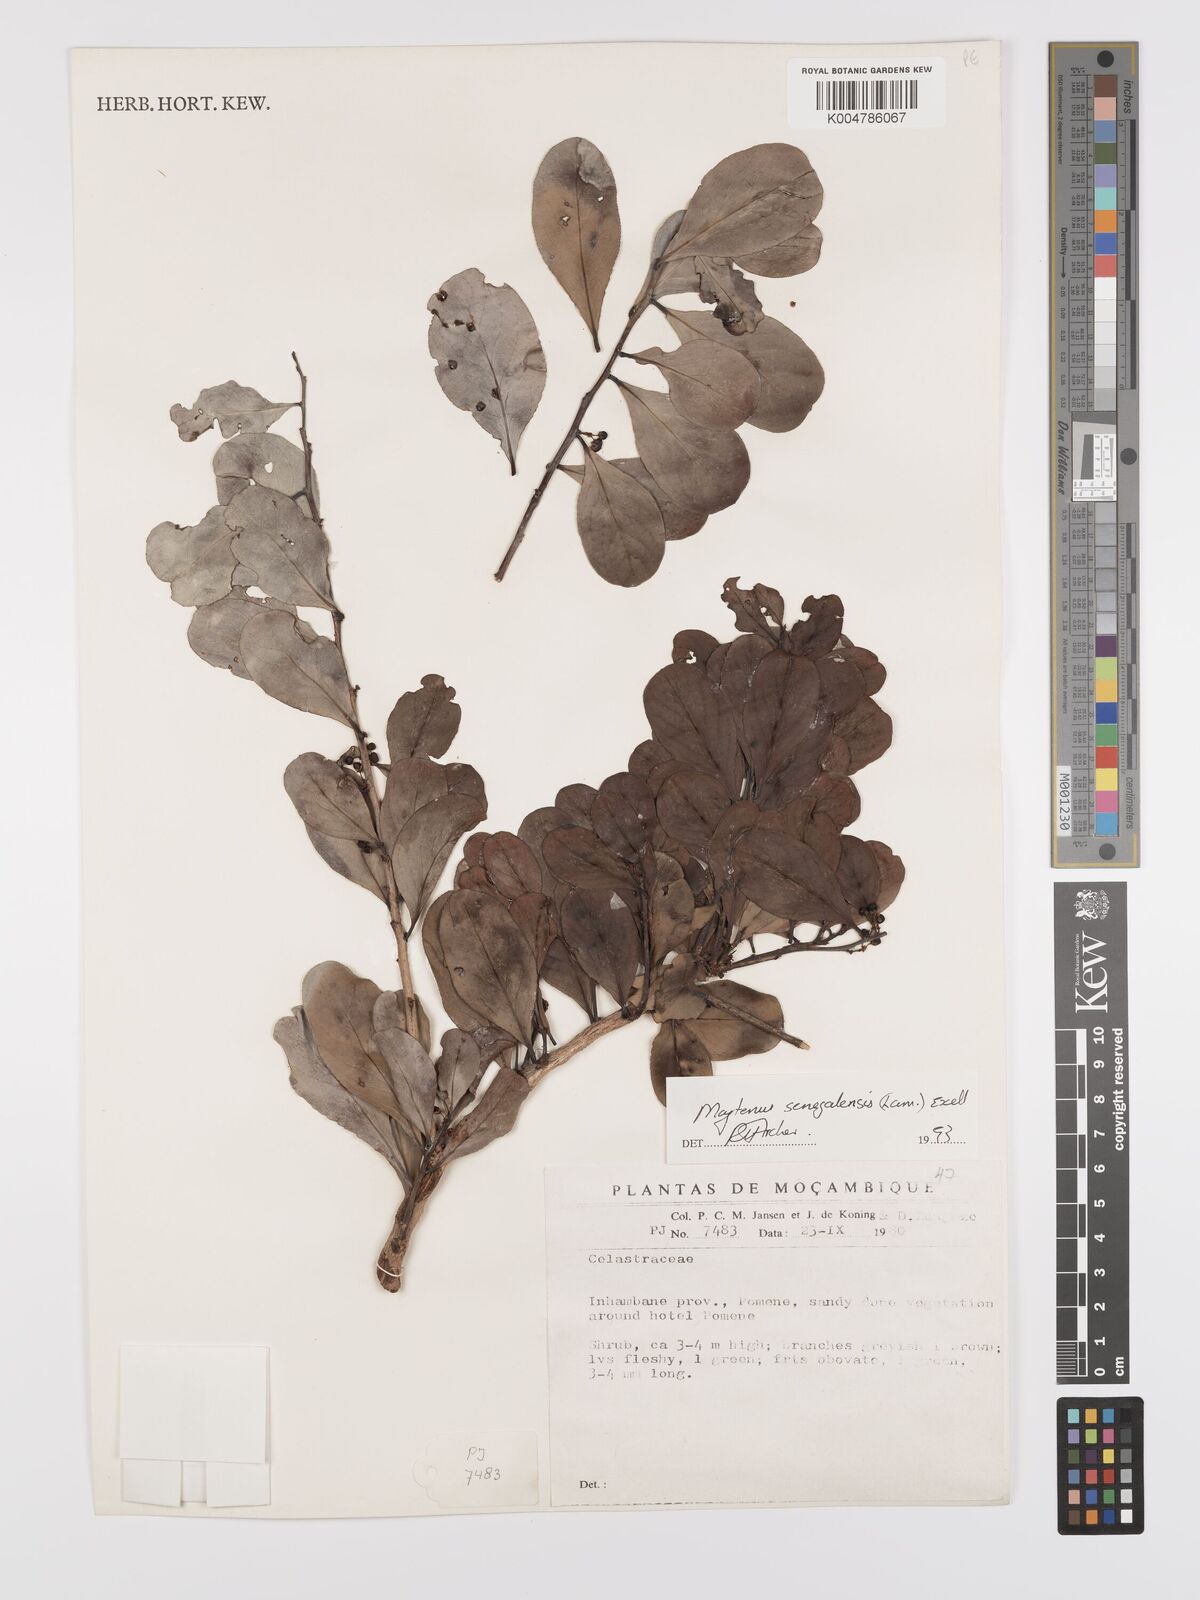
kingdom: Plantae
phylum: Tracheophyta
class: Magnoliopsida
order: Celastrales
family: Celastraceae
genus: Gymnosporia
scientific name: Gymnosporia senegalensis
